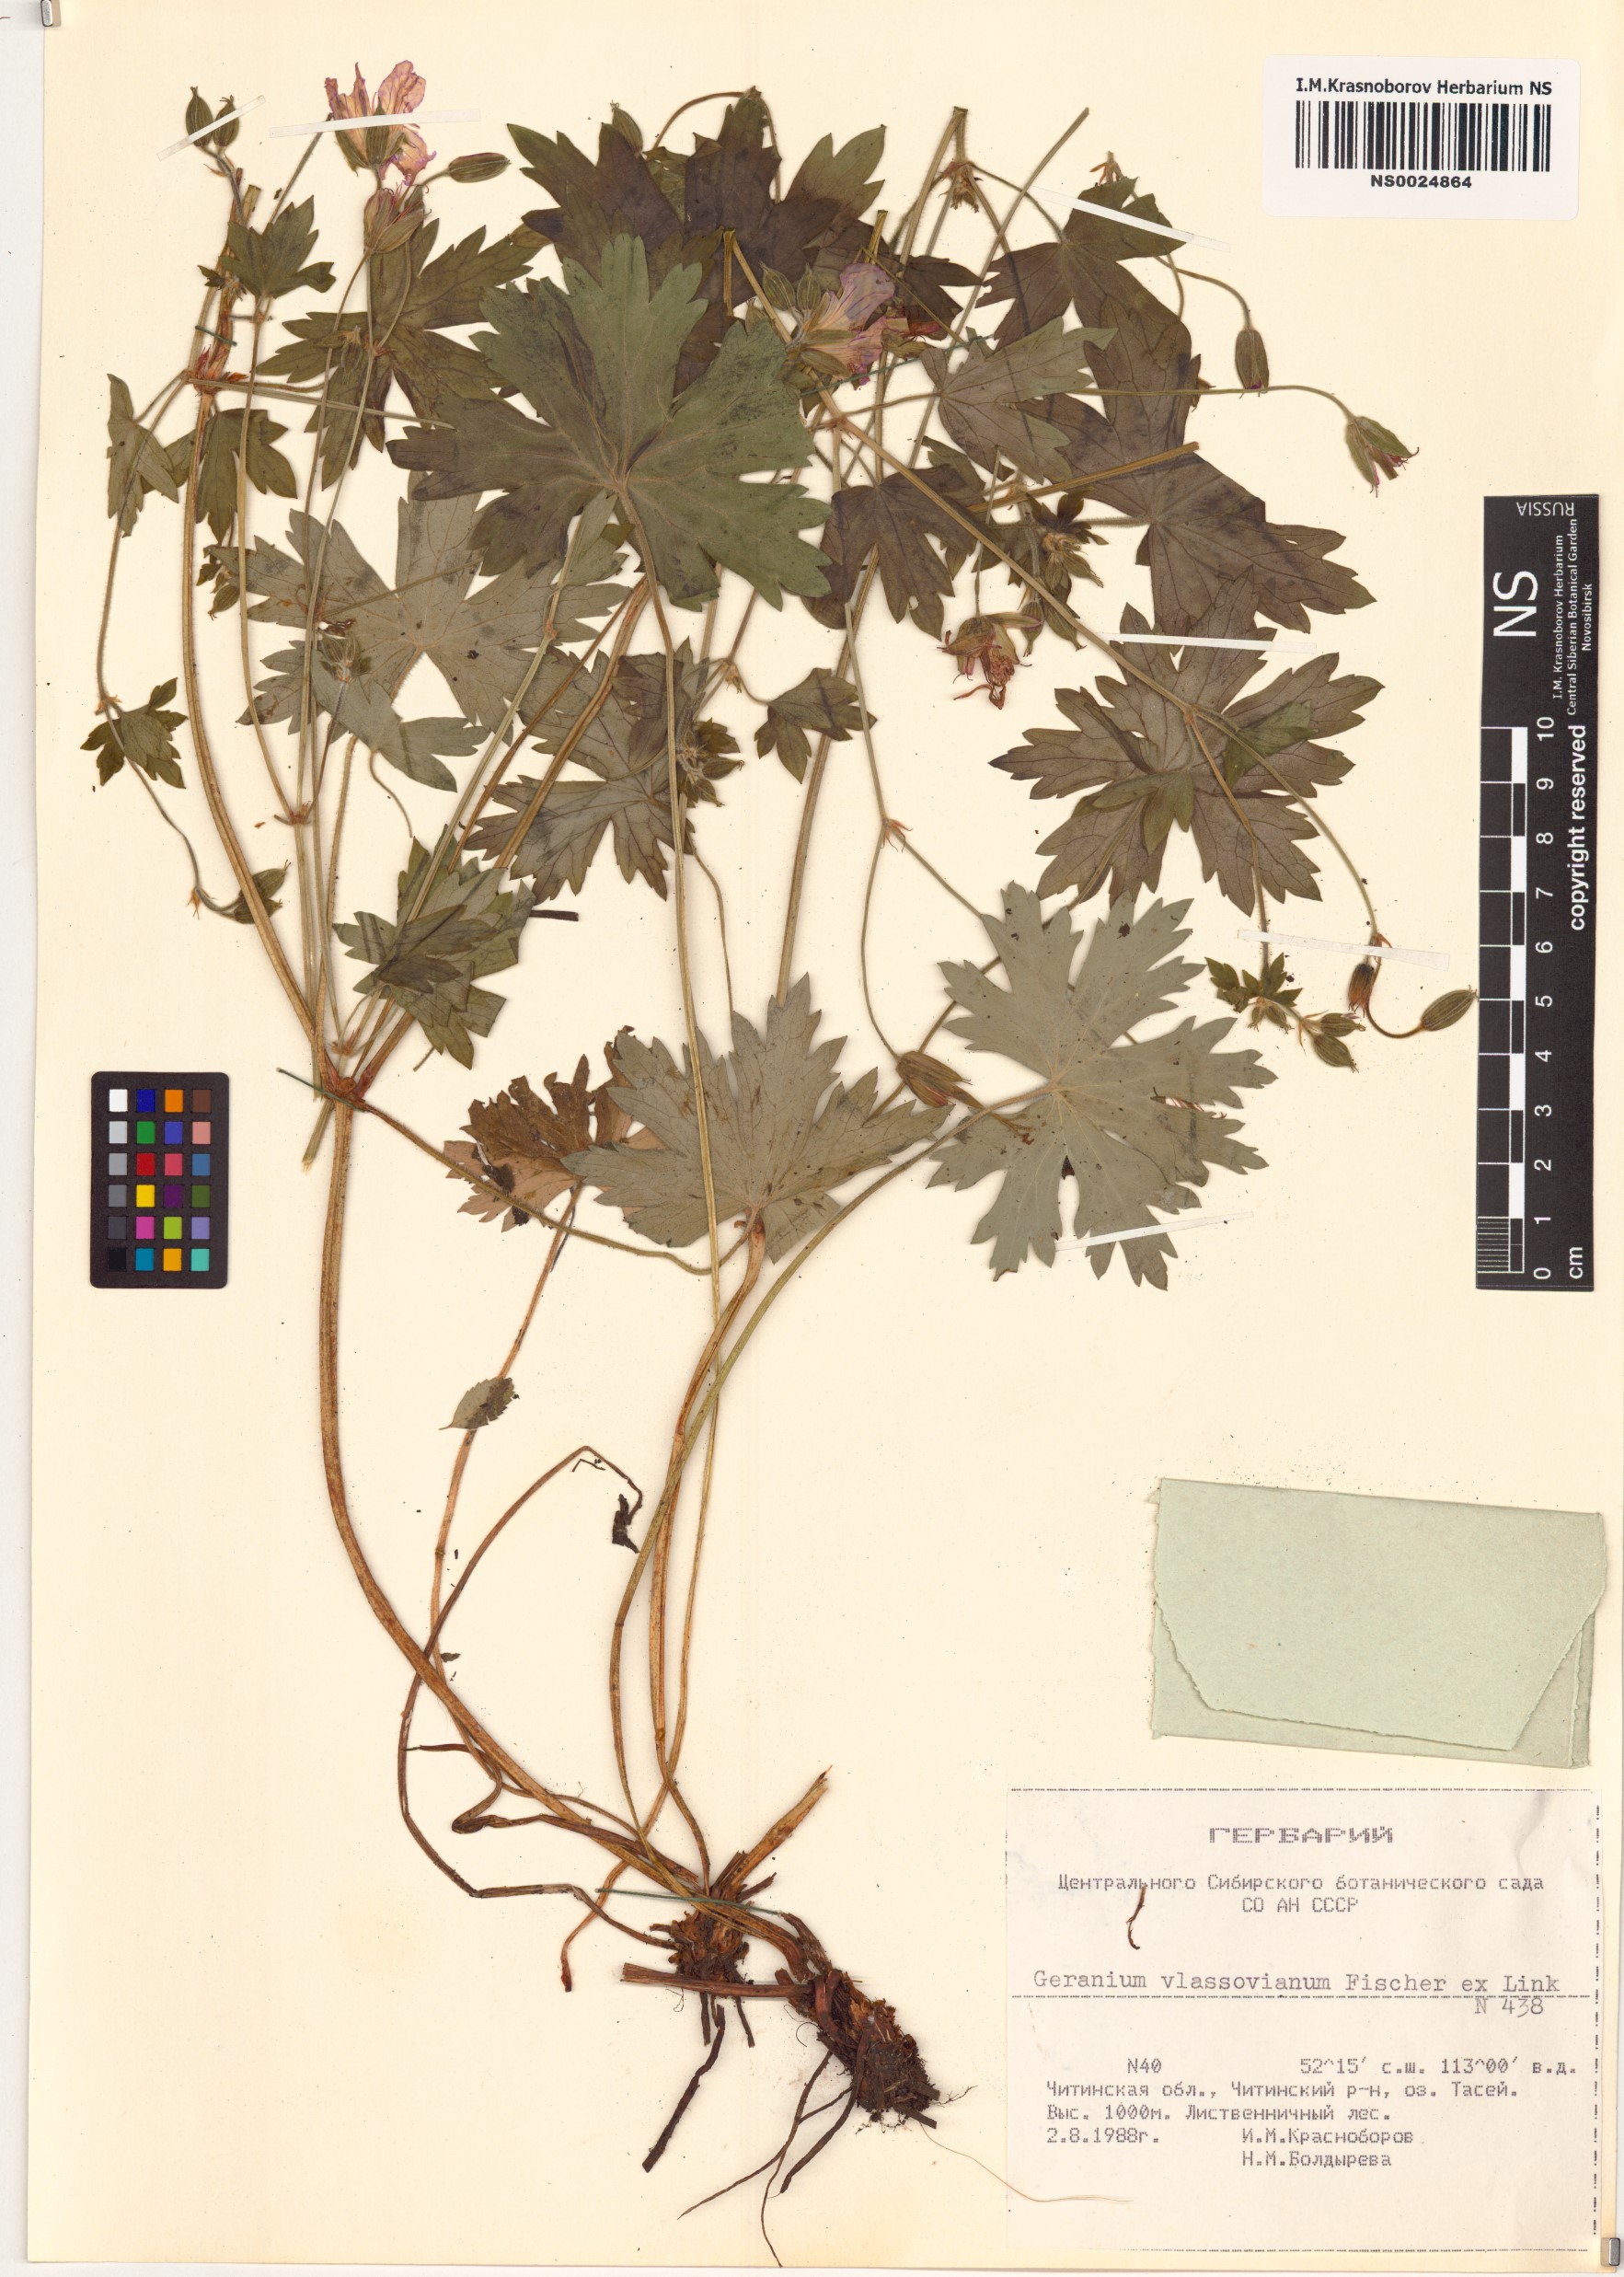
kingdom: Plantae
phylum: Tracheophyta
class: Magnoliopsida
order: Geraniales
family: Geraniaceae
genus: Geranium
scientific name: Geranium wlassovianum
